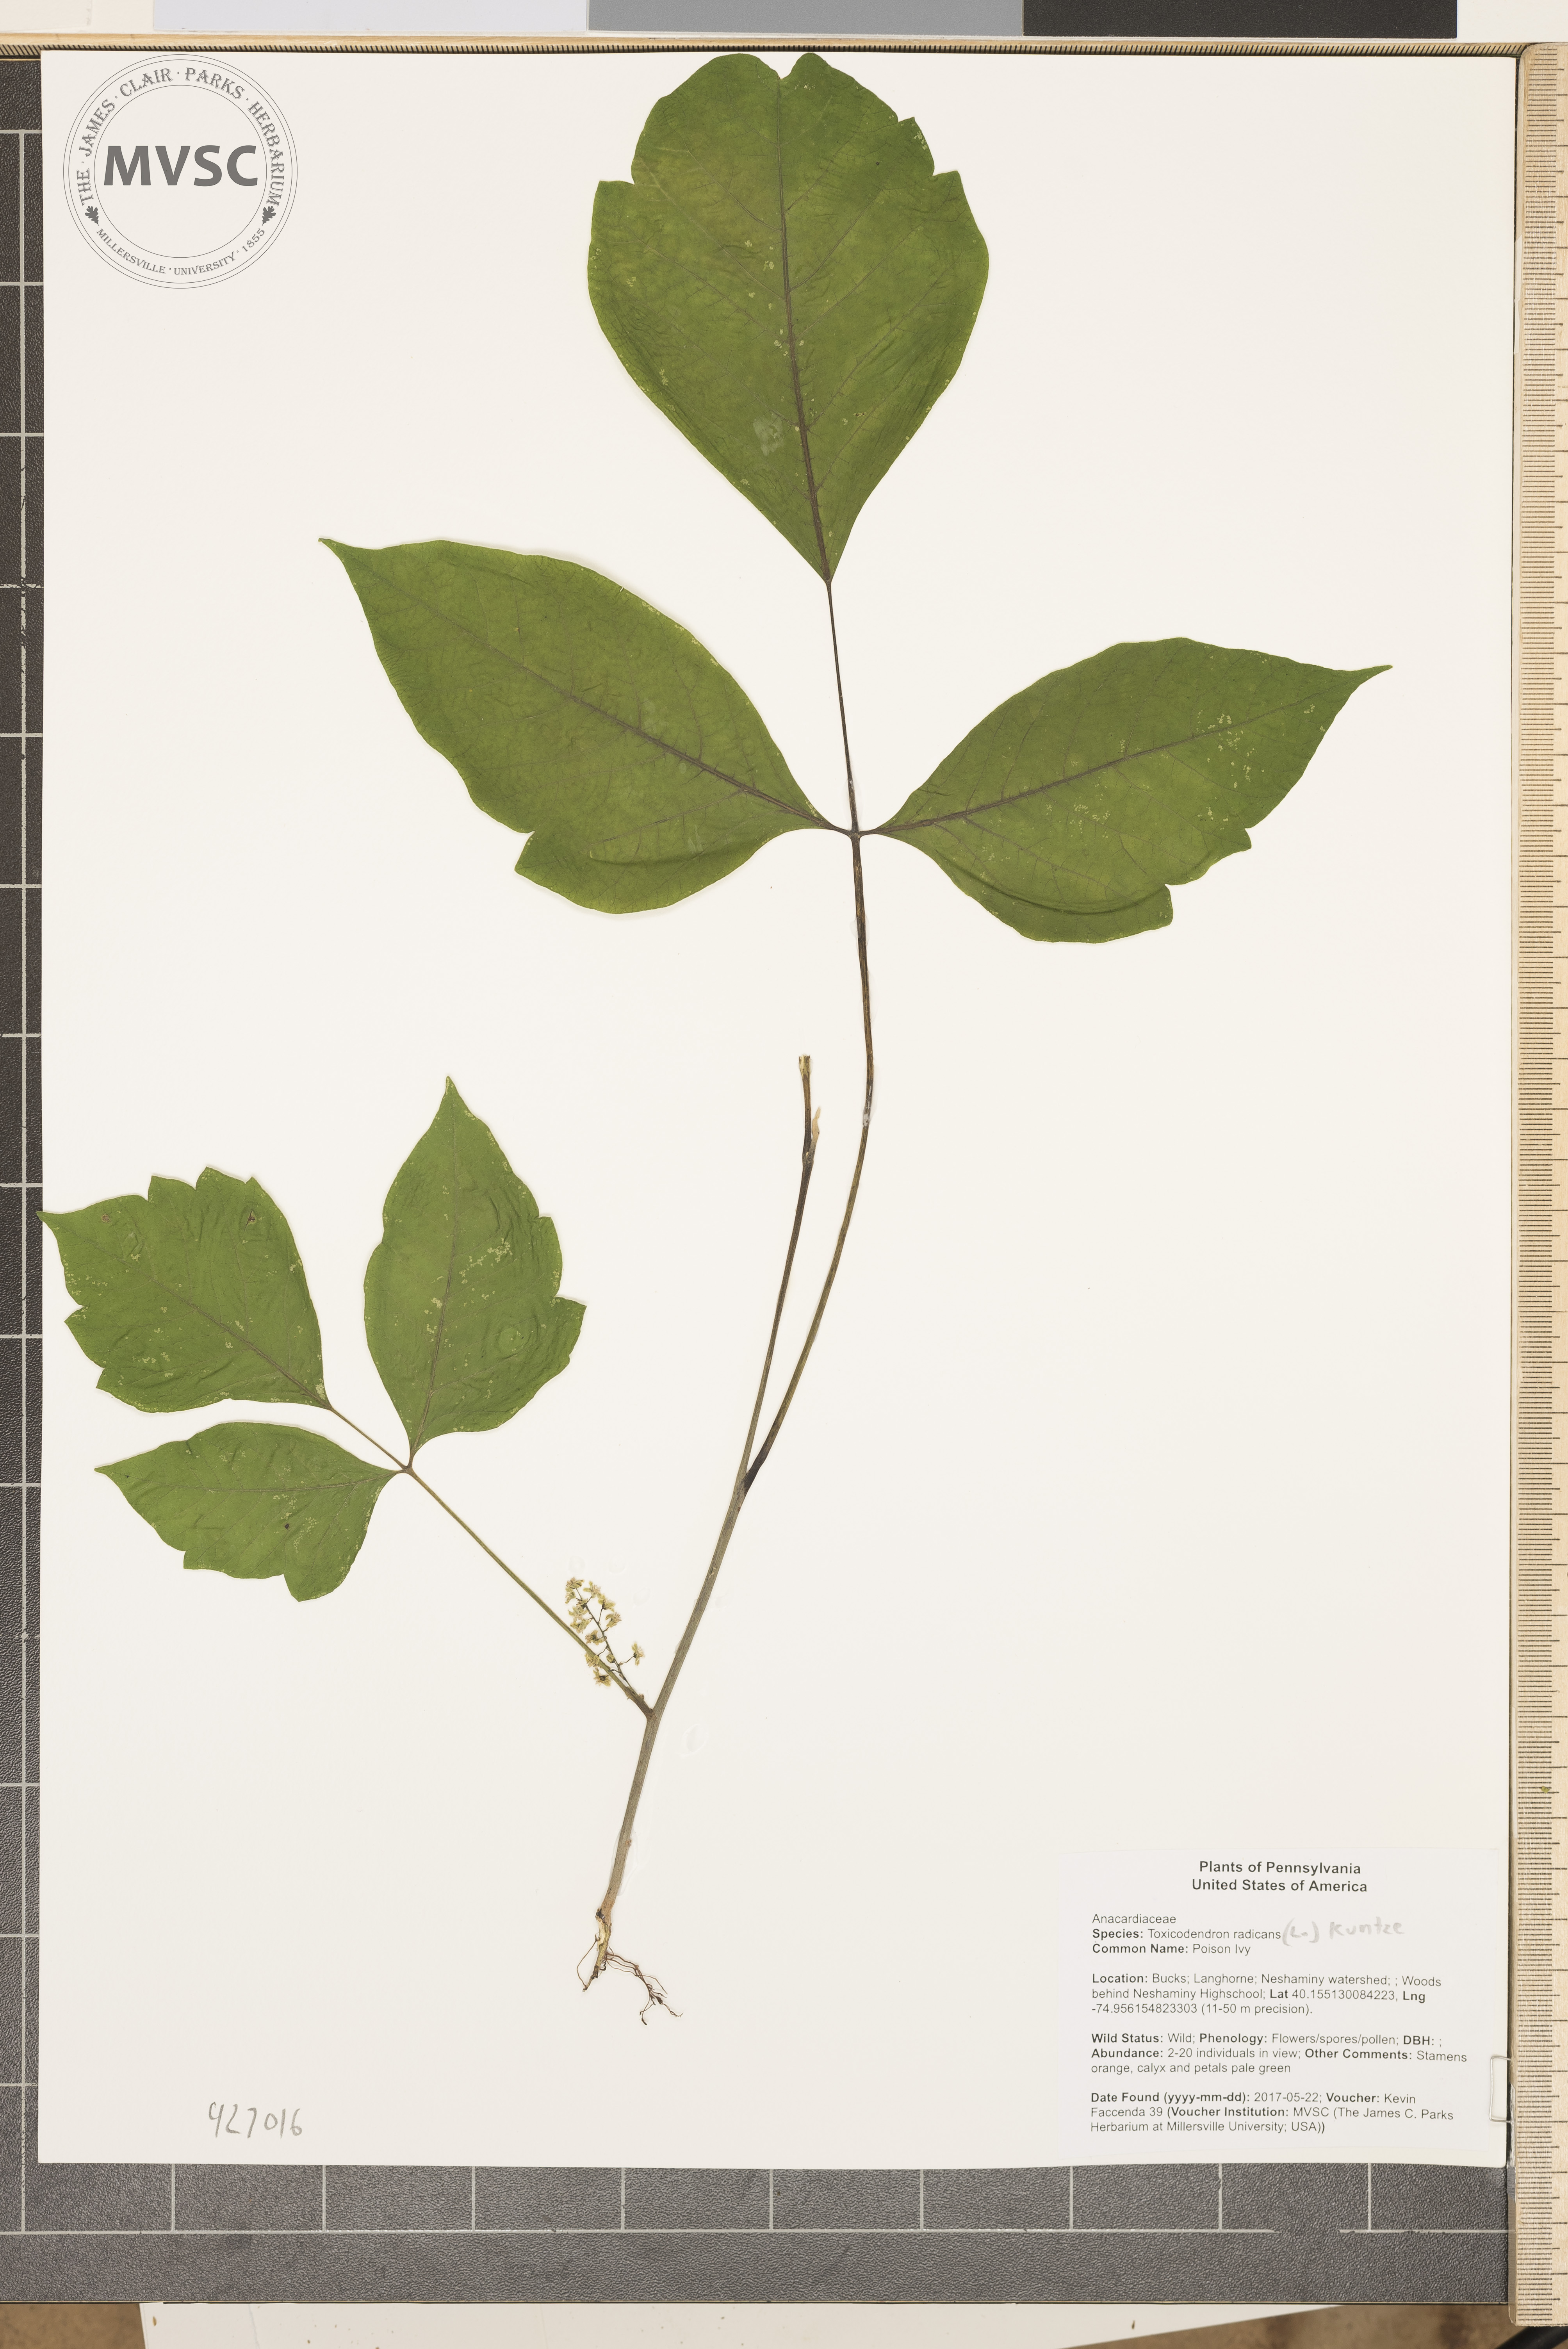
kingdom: Plantae
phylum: Tracheophyta
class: Magnoliopsida
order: Sapindales
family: Anacardiaceae
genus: Toxicodendron
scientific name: Toxicodendron radicans
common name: Poison Ivy
